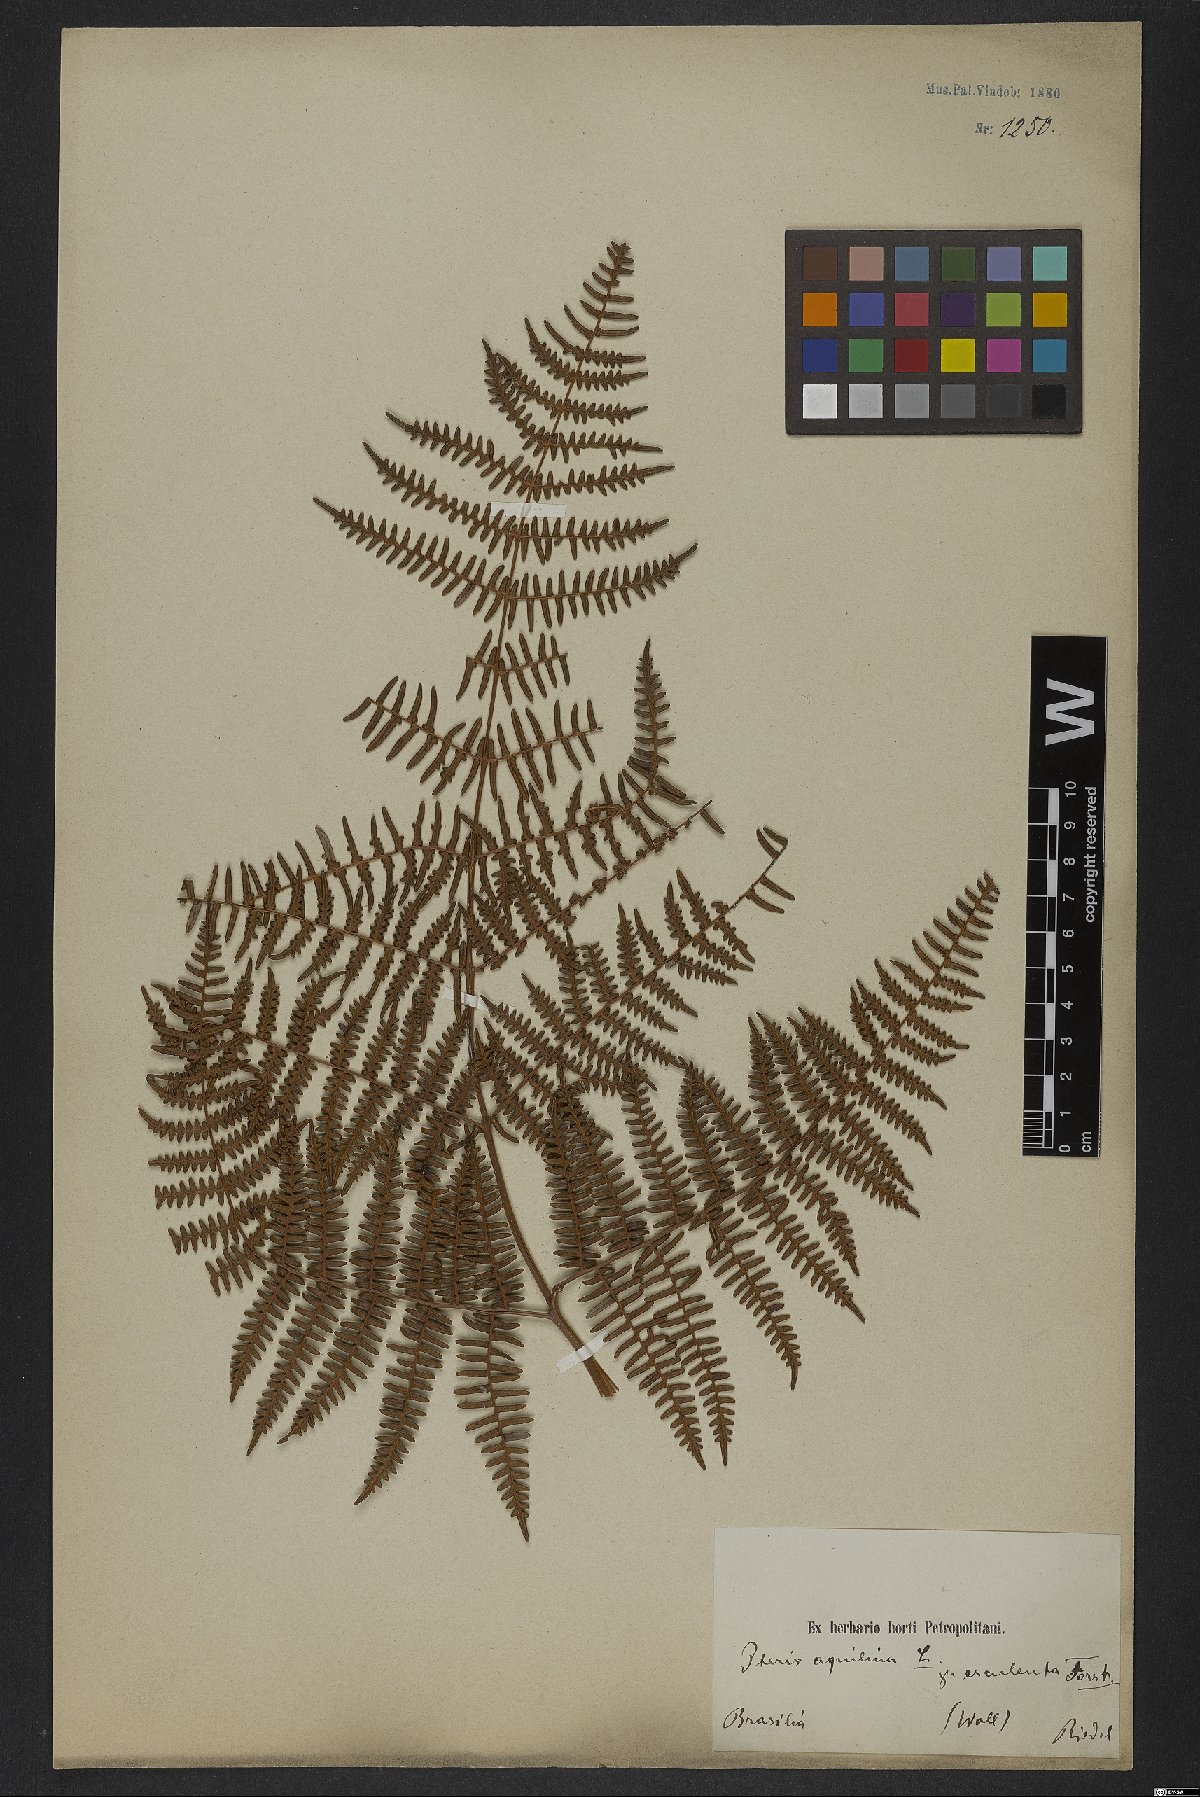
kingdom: Plantae
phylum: Tracheophyta
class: Polypodiopsida
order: Polypodiales
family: Dennstaedtiaceae
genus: Pteridium
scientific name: Pteridium esculentum
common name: Bracken fern
